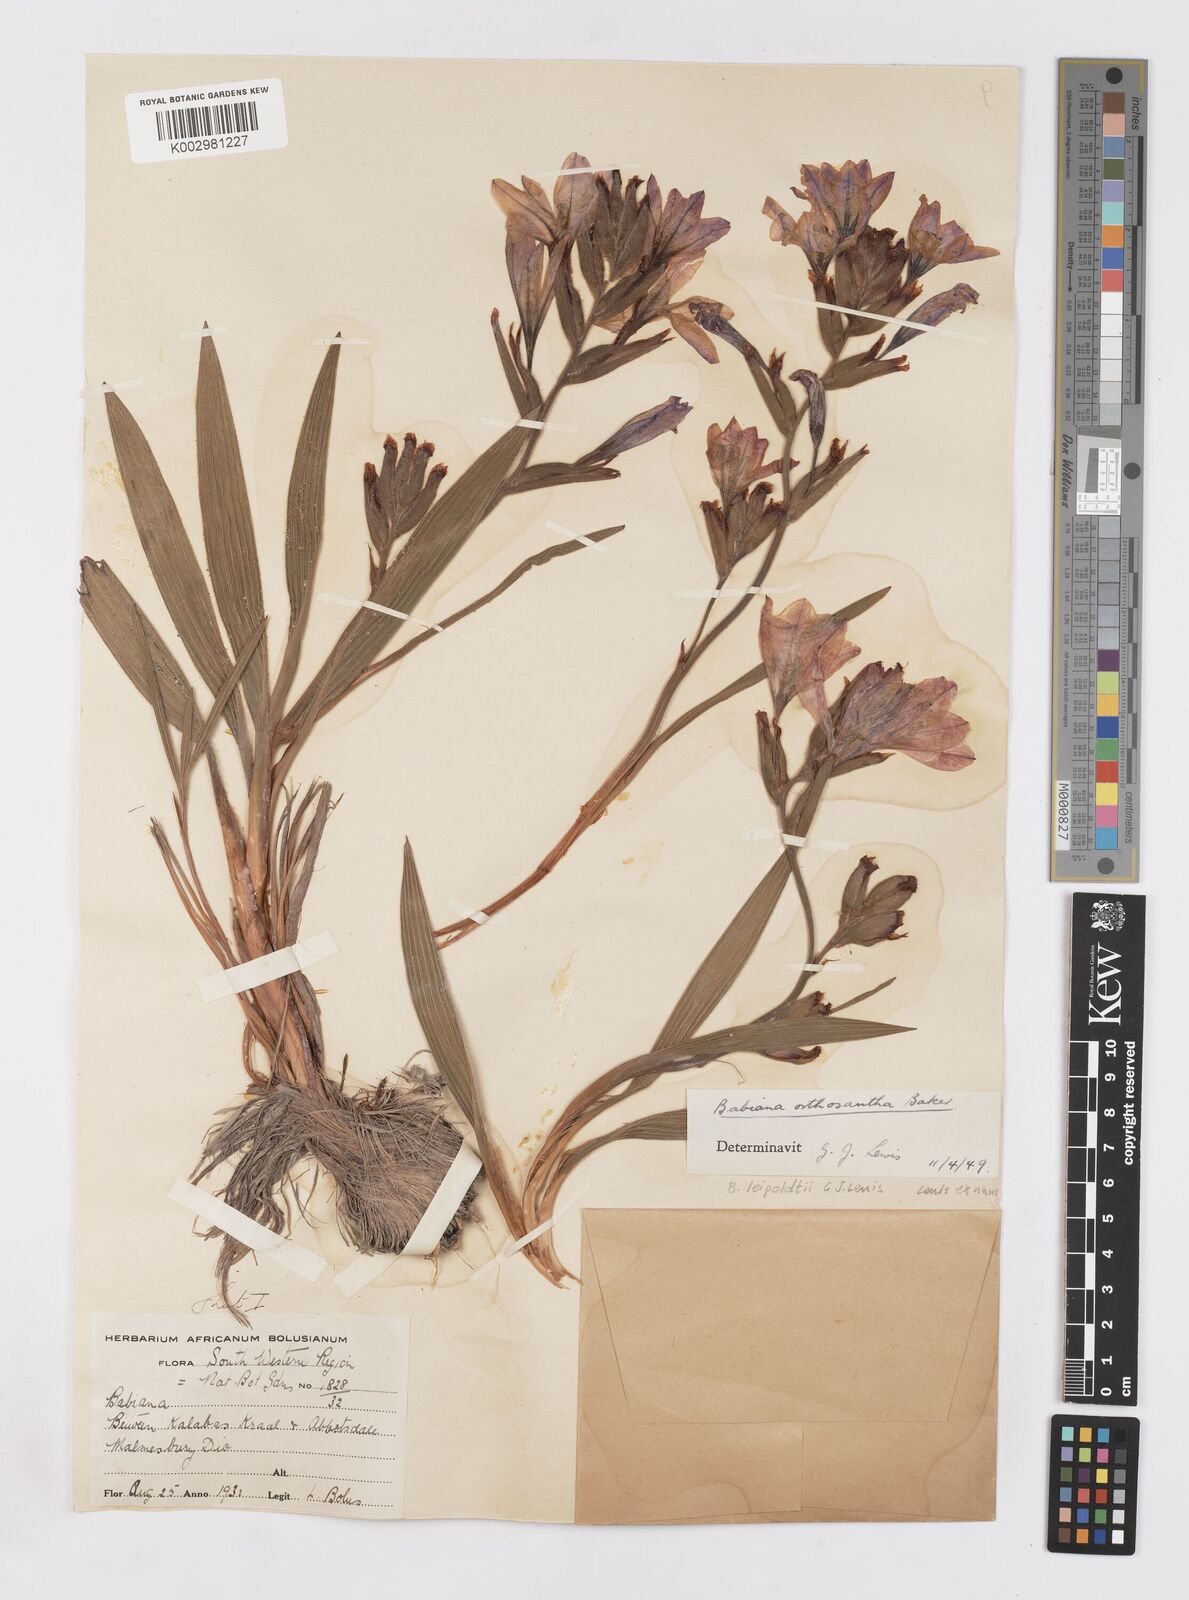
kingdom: Plantae
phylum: Tracheophyta
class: Liliopsida
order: Asparagales
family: Iridaceae
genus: Babiana
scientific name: Babiana leipoldtii
